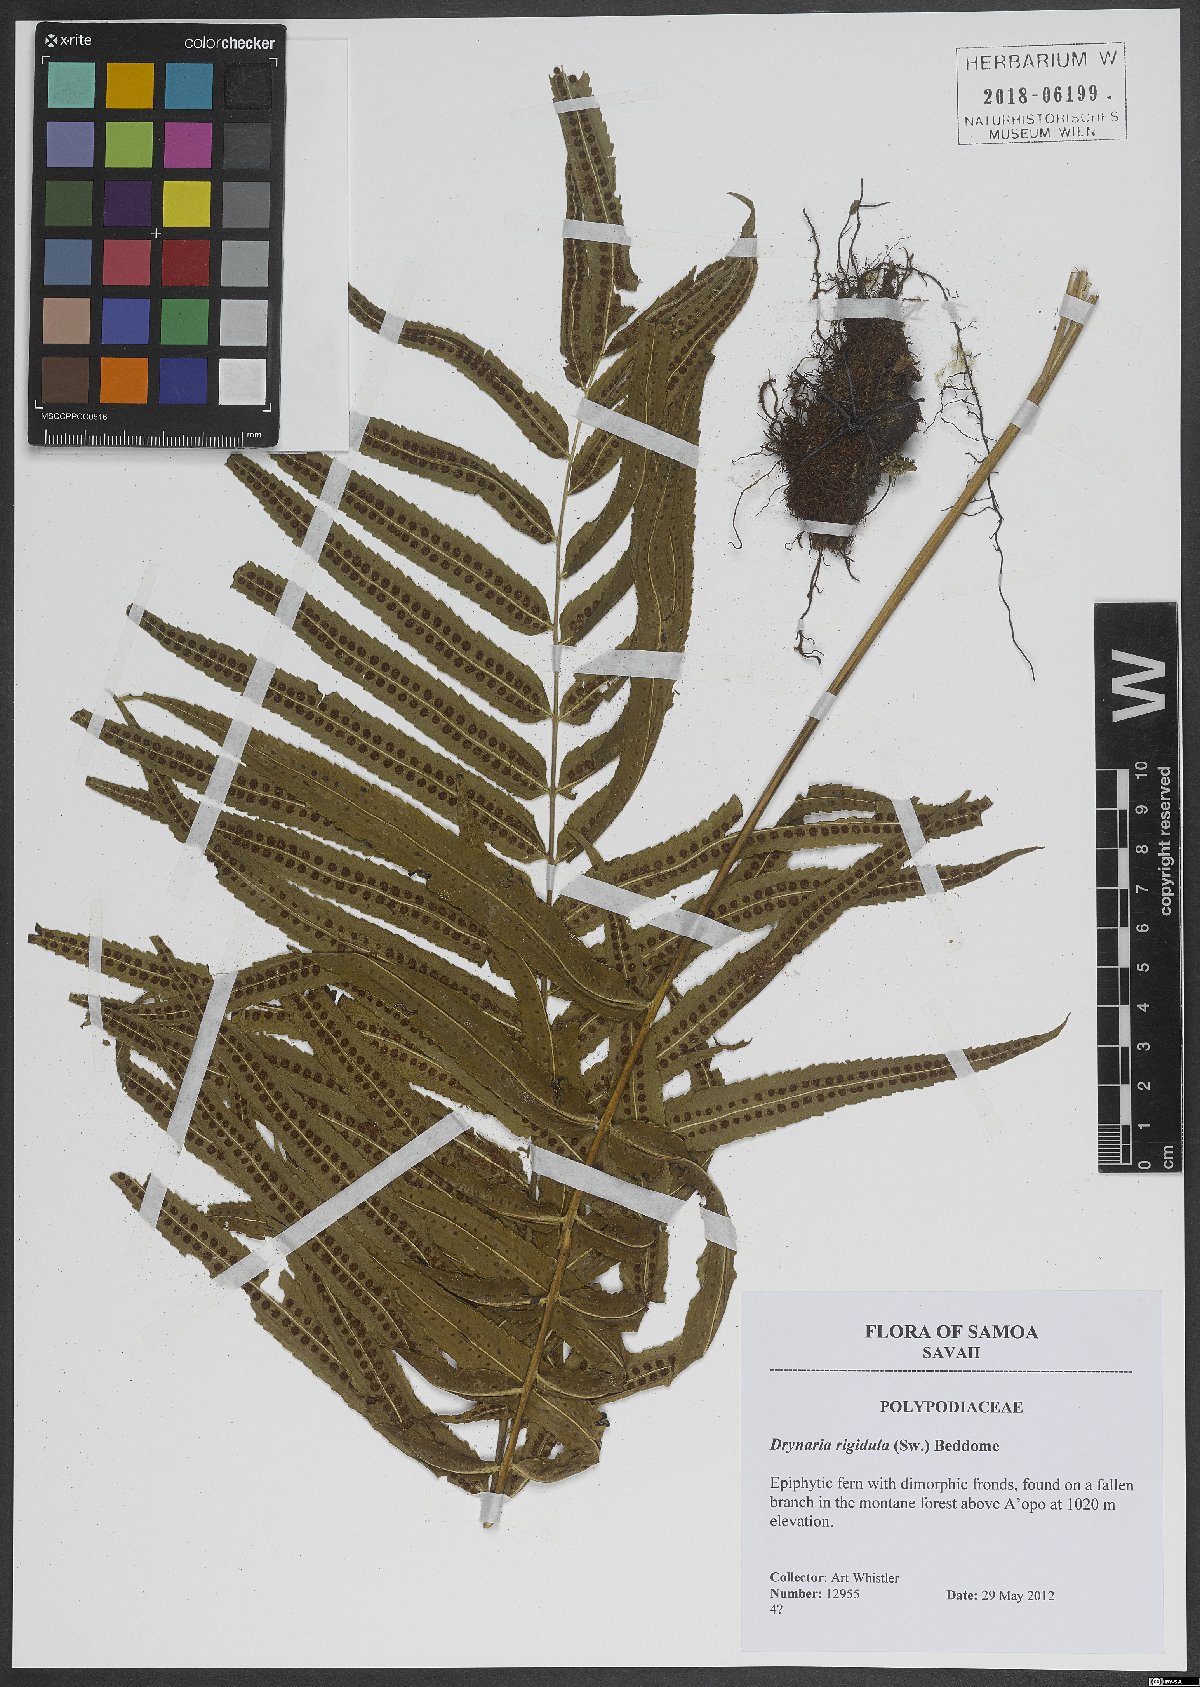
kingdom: Plantae
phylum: Tracheophyta
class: Polypodiopsida
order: Polypodiales
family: Polypodiaceae
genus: Drynaria
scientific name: Drynaria rigidula
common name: Basket fern
